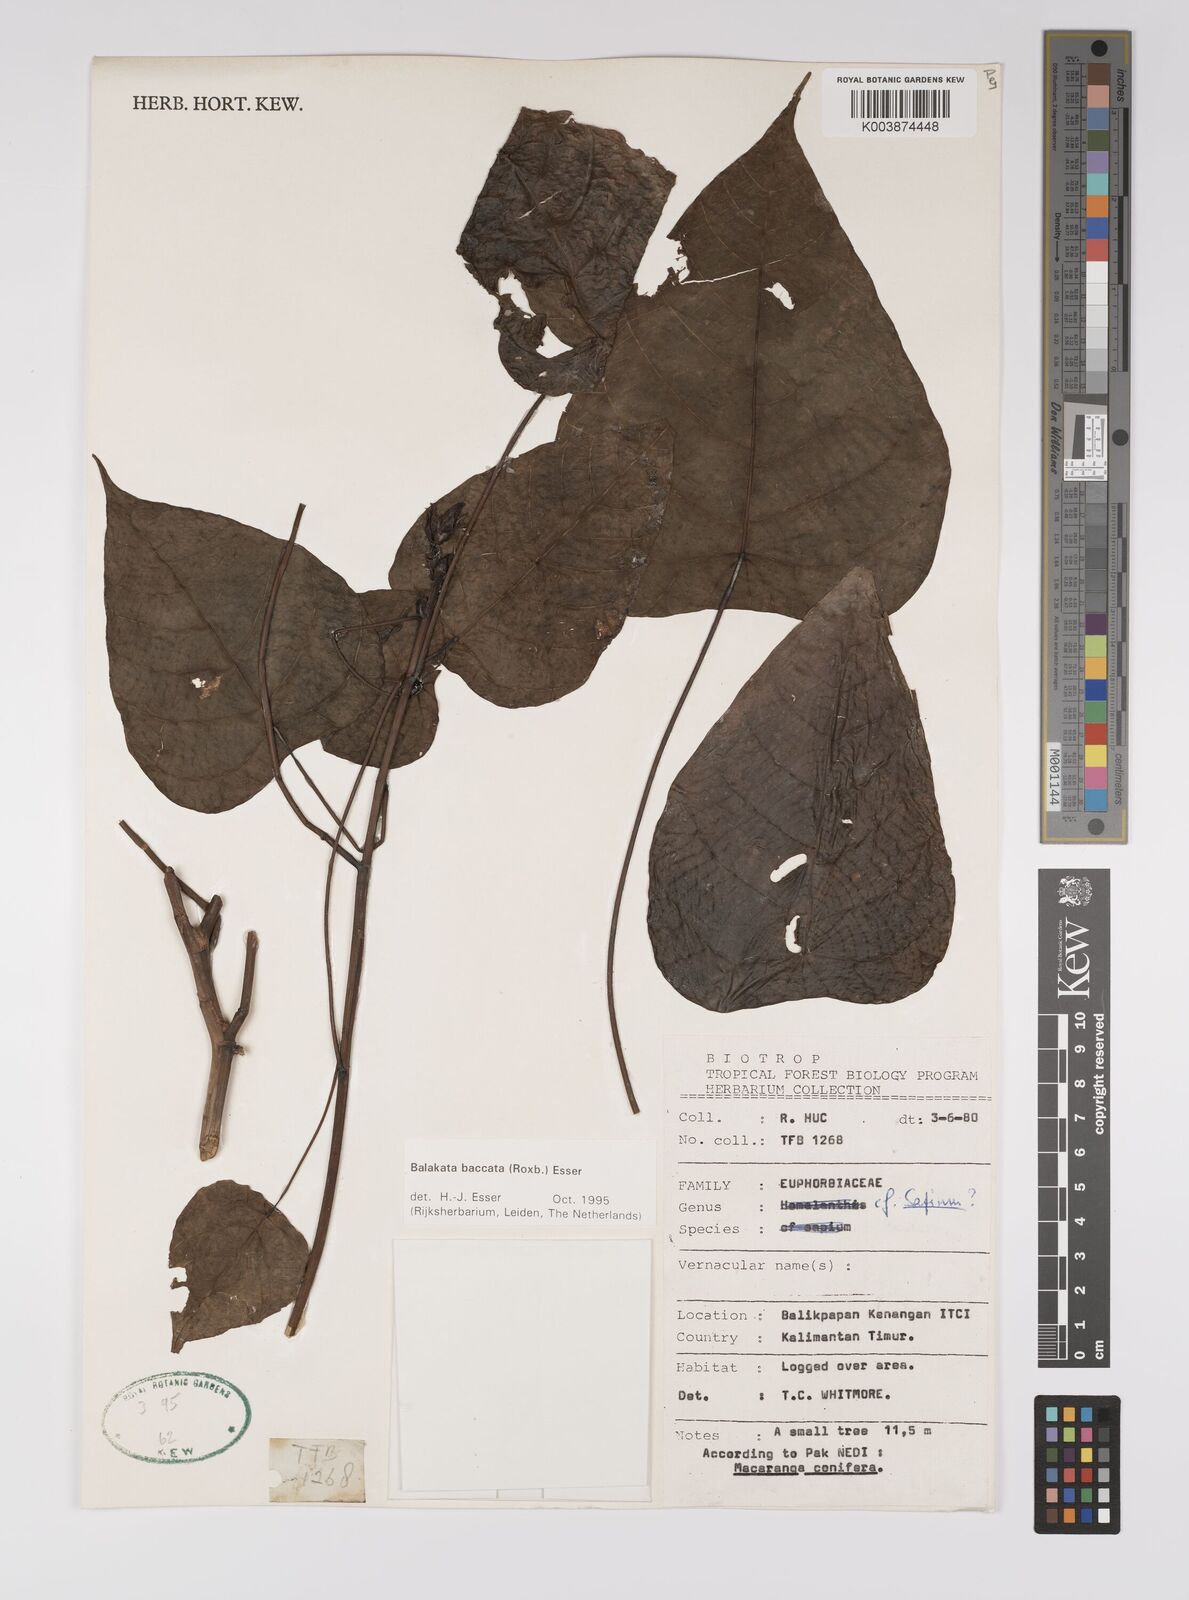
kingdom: Plantae
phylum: Tracheophyta
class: Magnoliopsida
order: Malpighiales
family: Euphorbiaceae
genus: Balakata
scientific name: Balakata baccata
